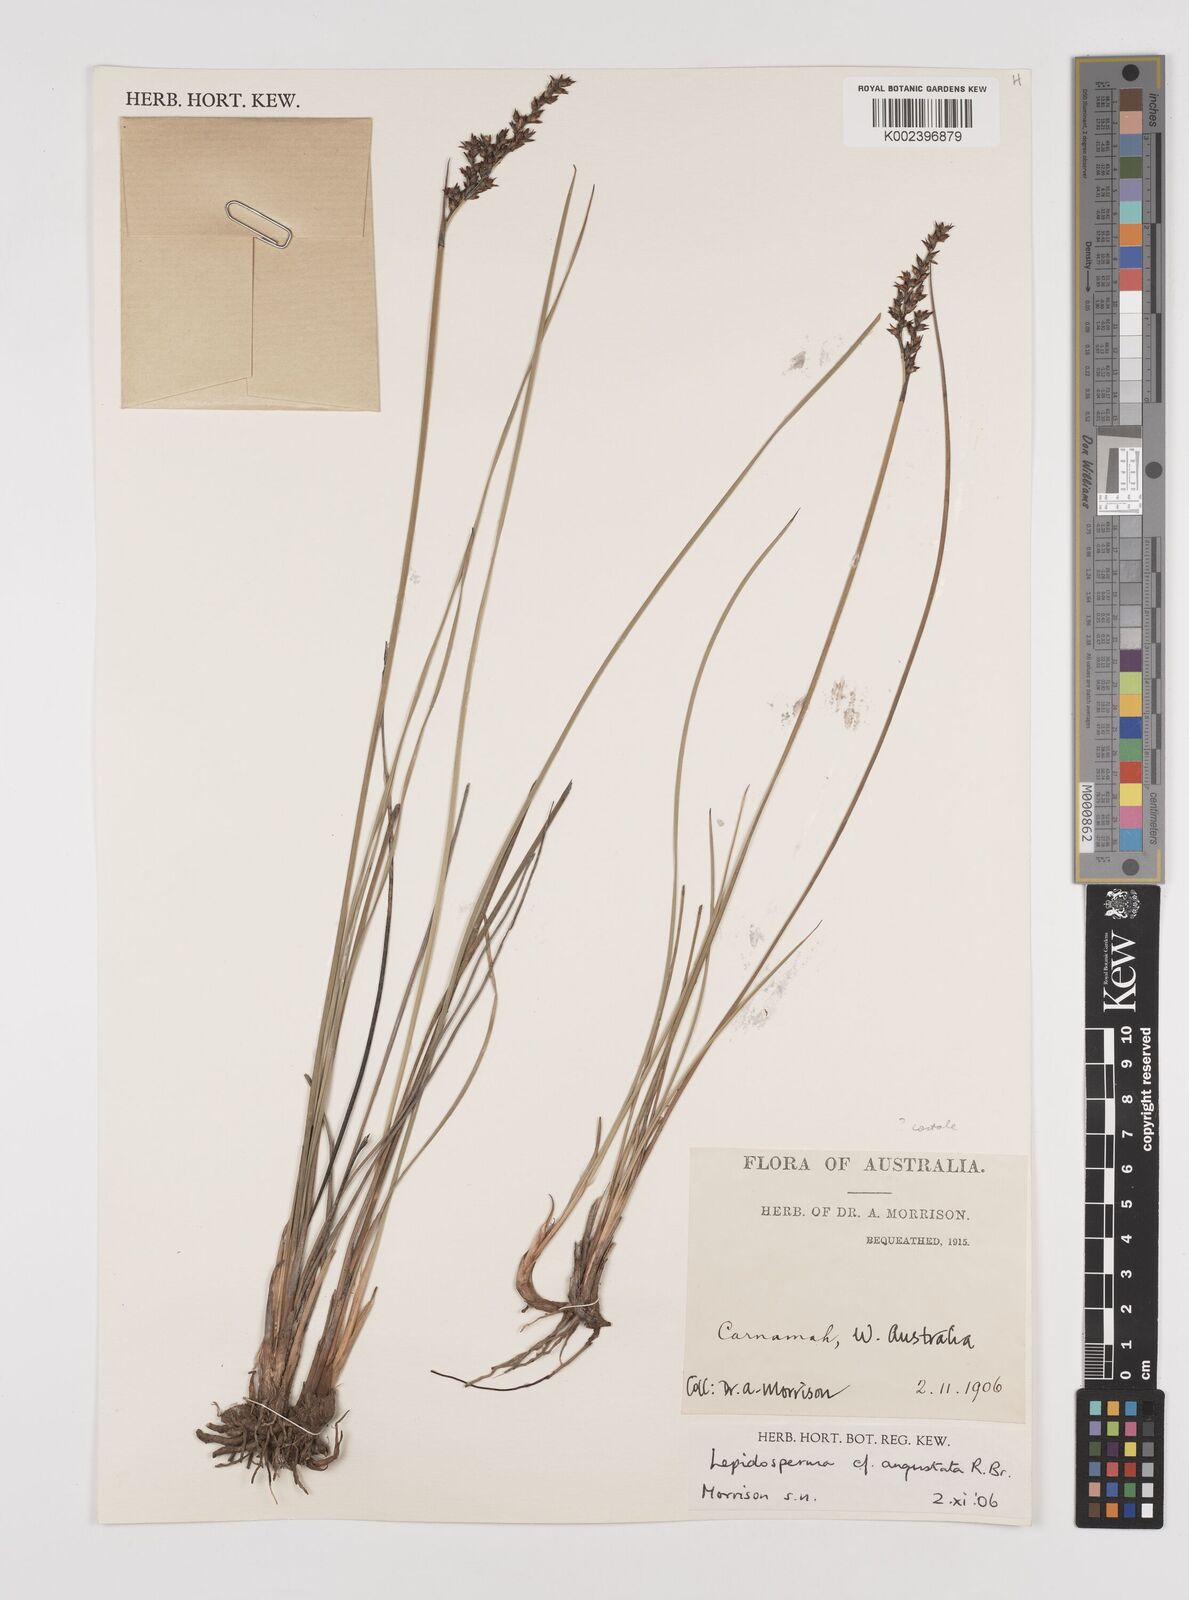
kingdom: Plantae
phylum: Tracheophyta
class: Liliopsida
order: Poales
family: Cyperaceae
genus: Lepidosperma
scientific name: Lepidosperma costale
